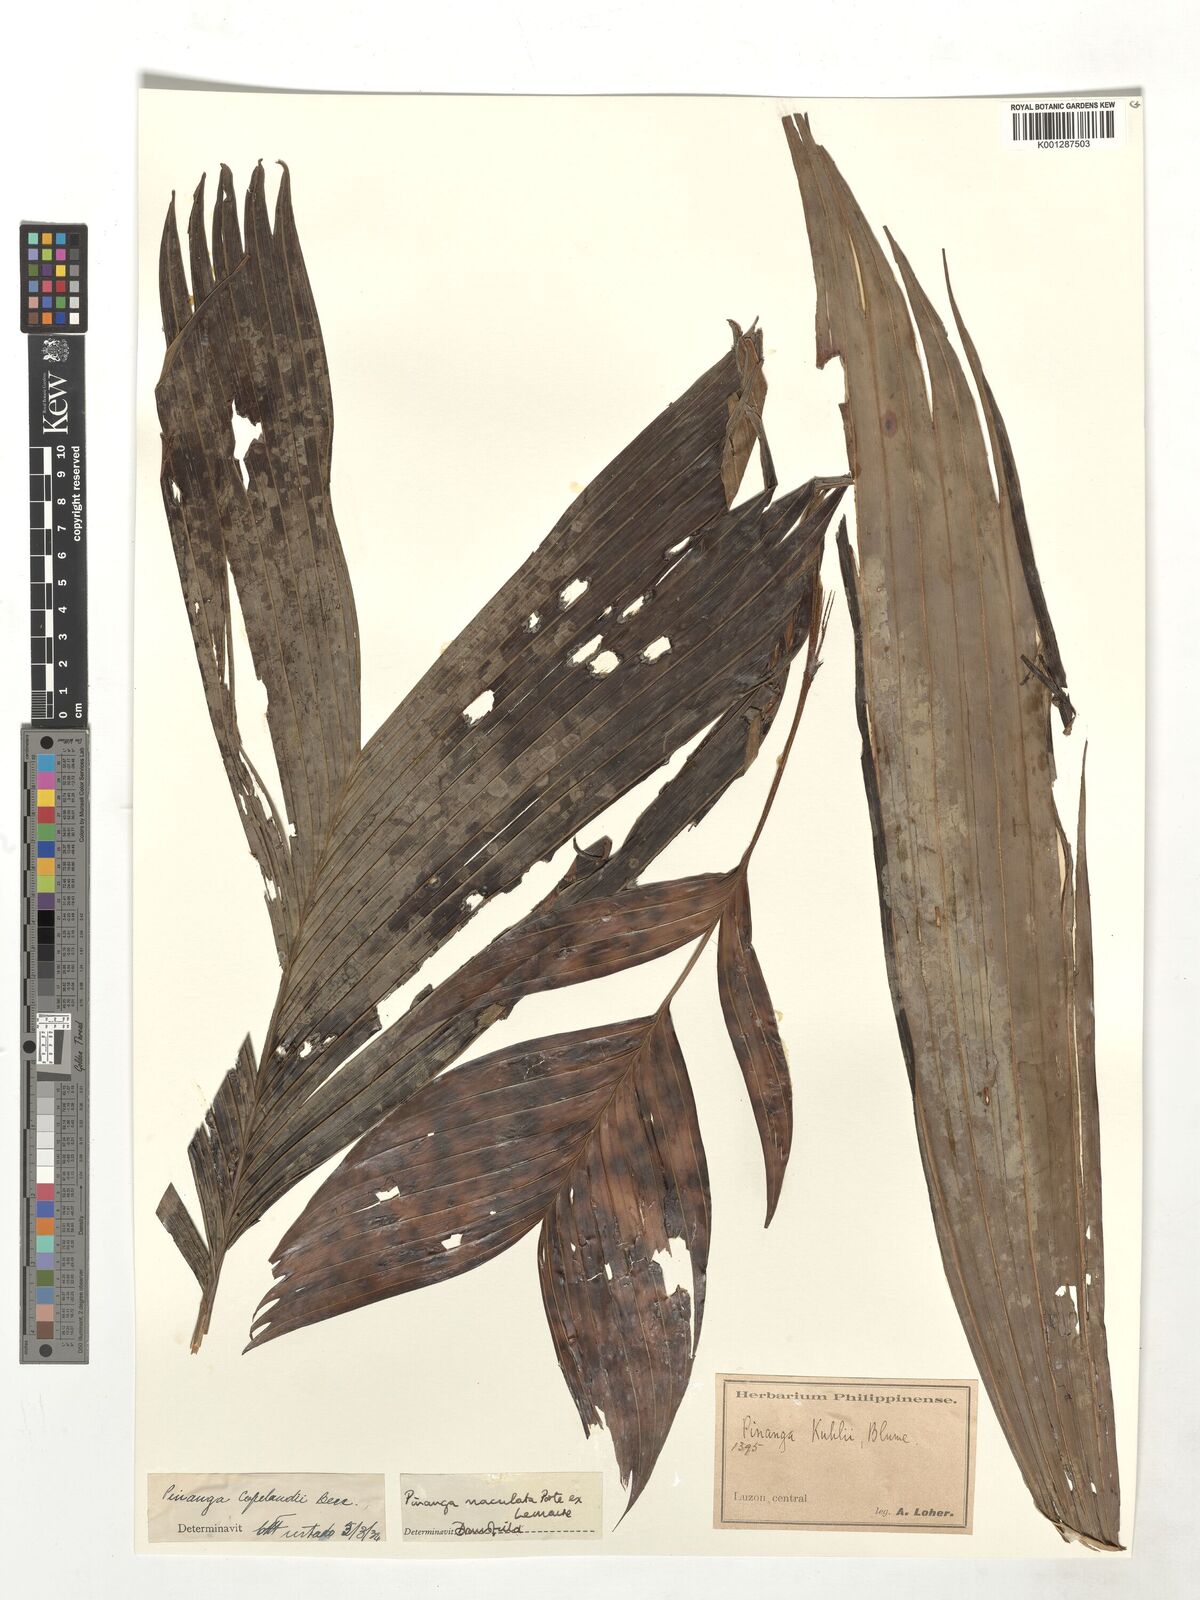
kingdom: Plantae
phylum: Tracheophyta
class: Liliopsida
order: Arecales
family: Arecaceae
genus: Pinanga
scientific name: Pinanga maculata
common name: Tiger palm
